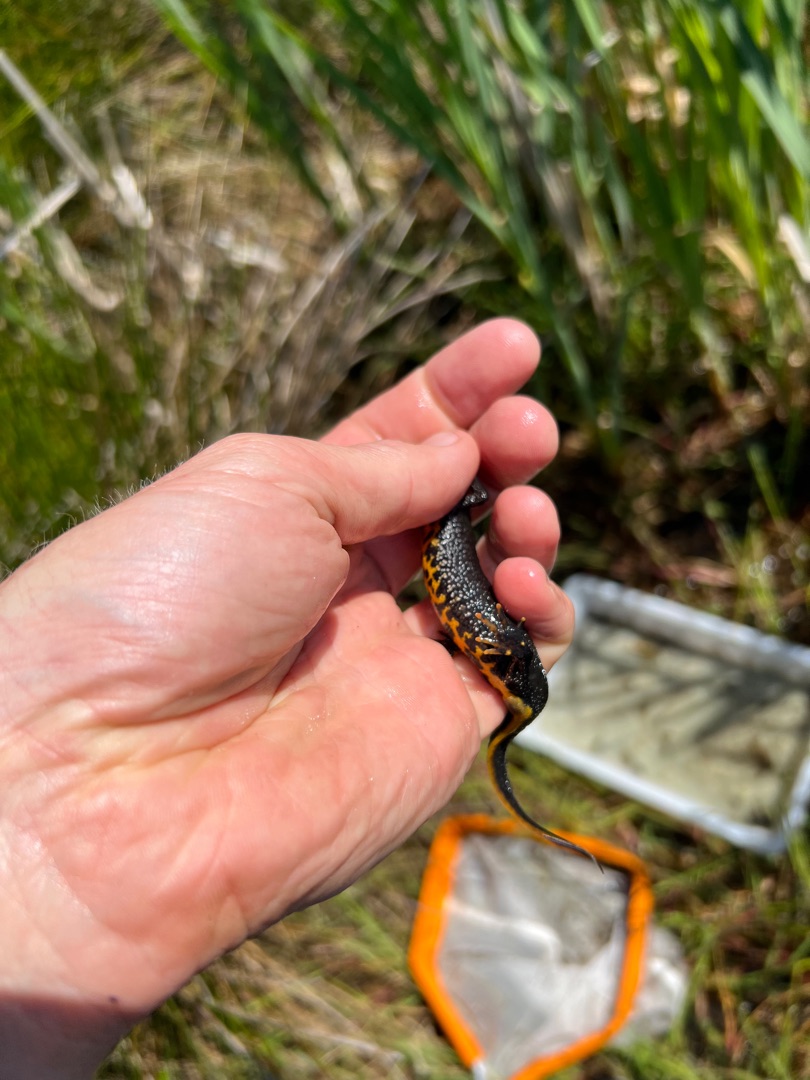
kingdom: Animalia
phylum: Chordata
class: Amphibia
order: Caudata
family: Salamandridae
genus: Triturus
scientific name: Triturus cristatus
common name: Stor vandsalamander
